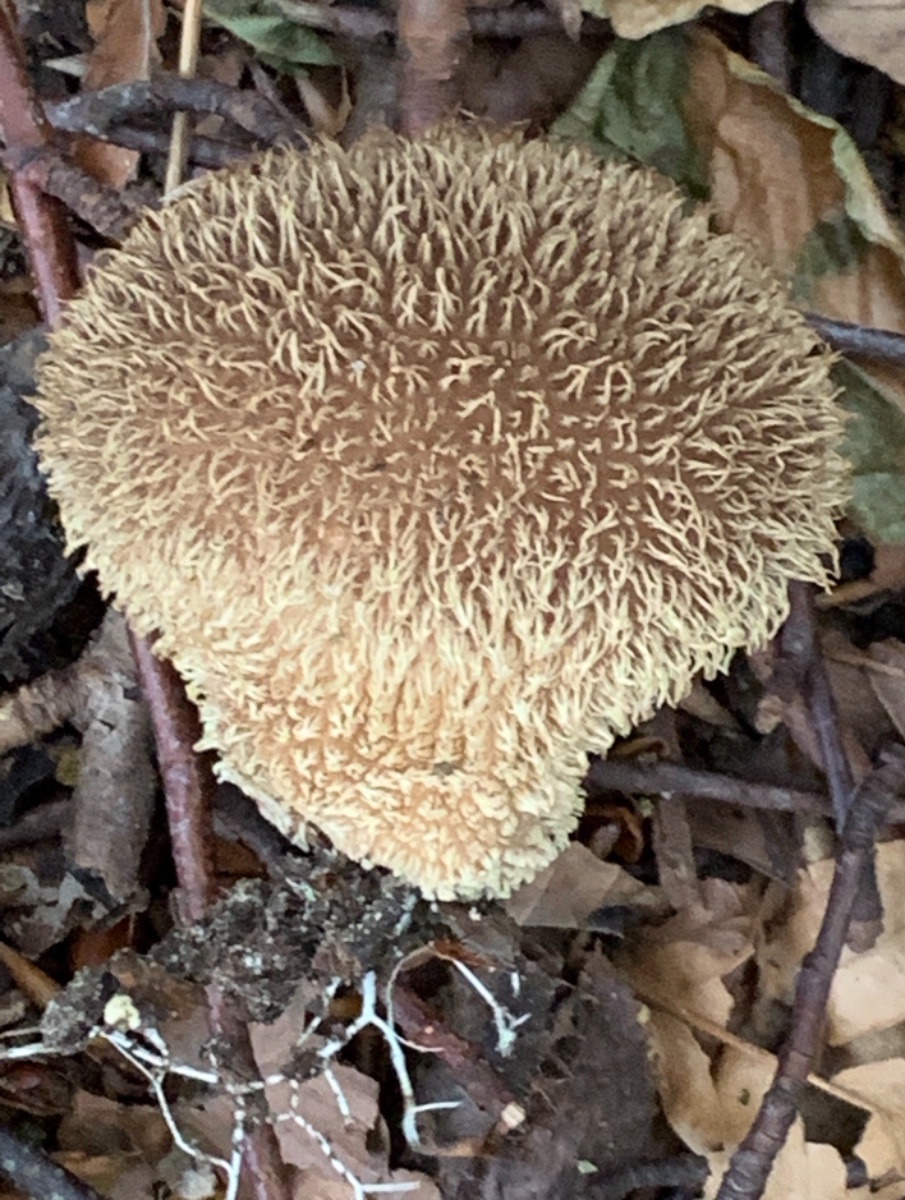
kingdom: Fungi
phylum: Basidiomycota
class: Agaricomycetes
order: Agaricales
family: Lycoperdaceae
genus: Lycoperdon
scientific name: Lycoperdon echinatum
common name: pindsvine-støvbold
